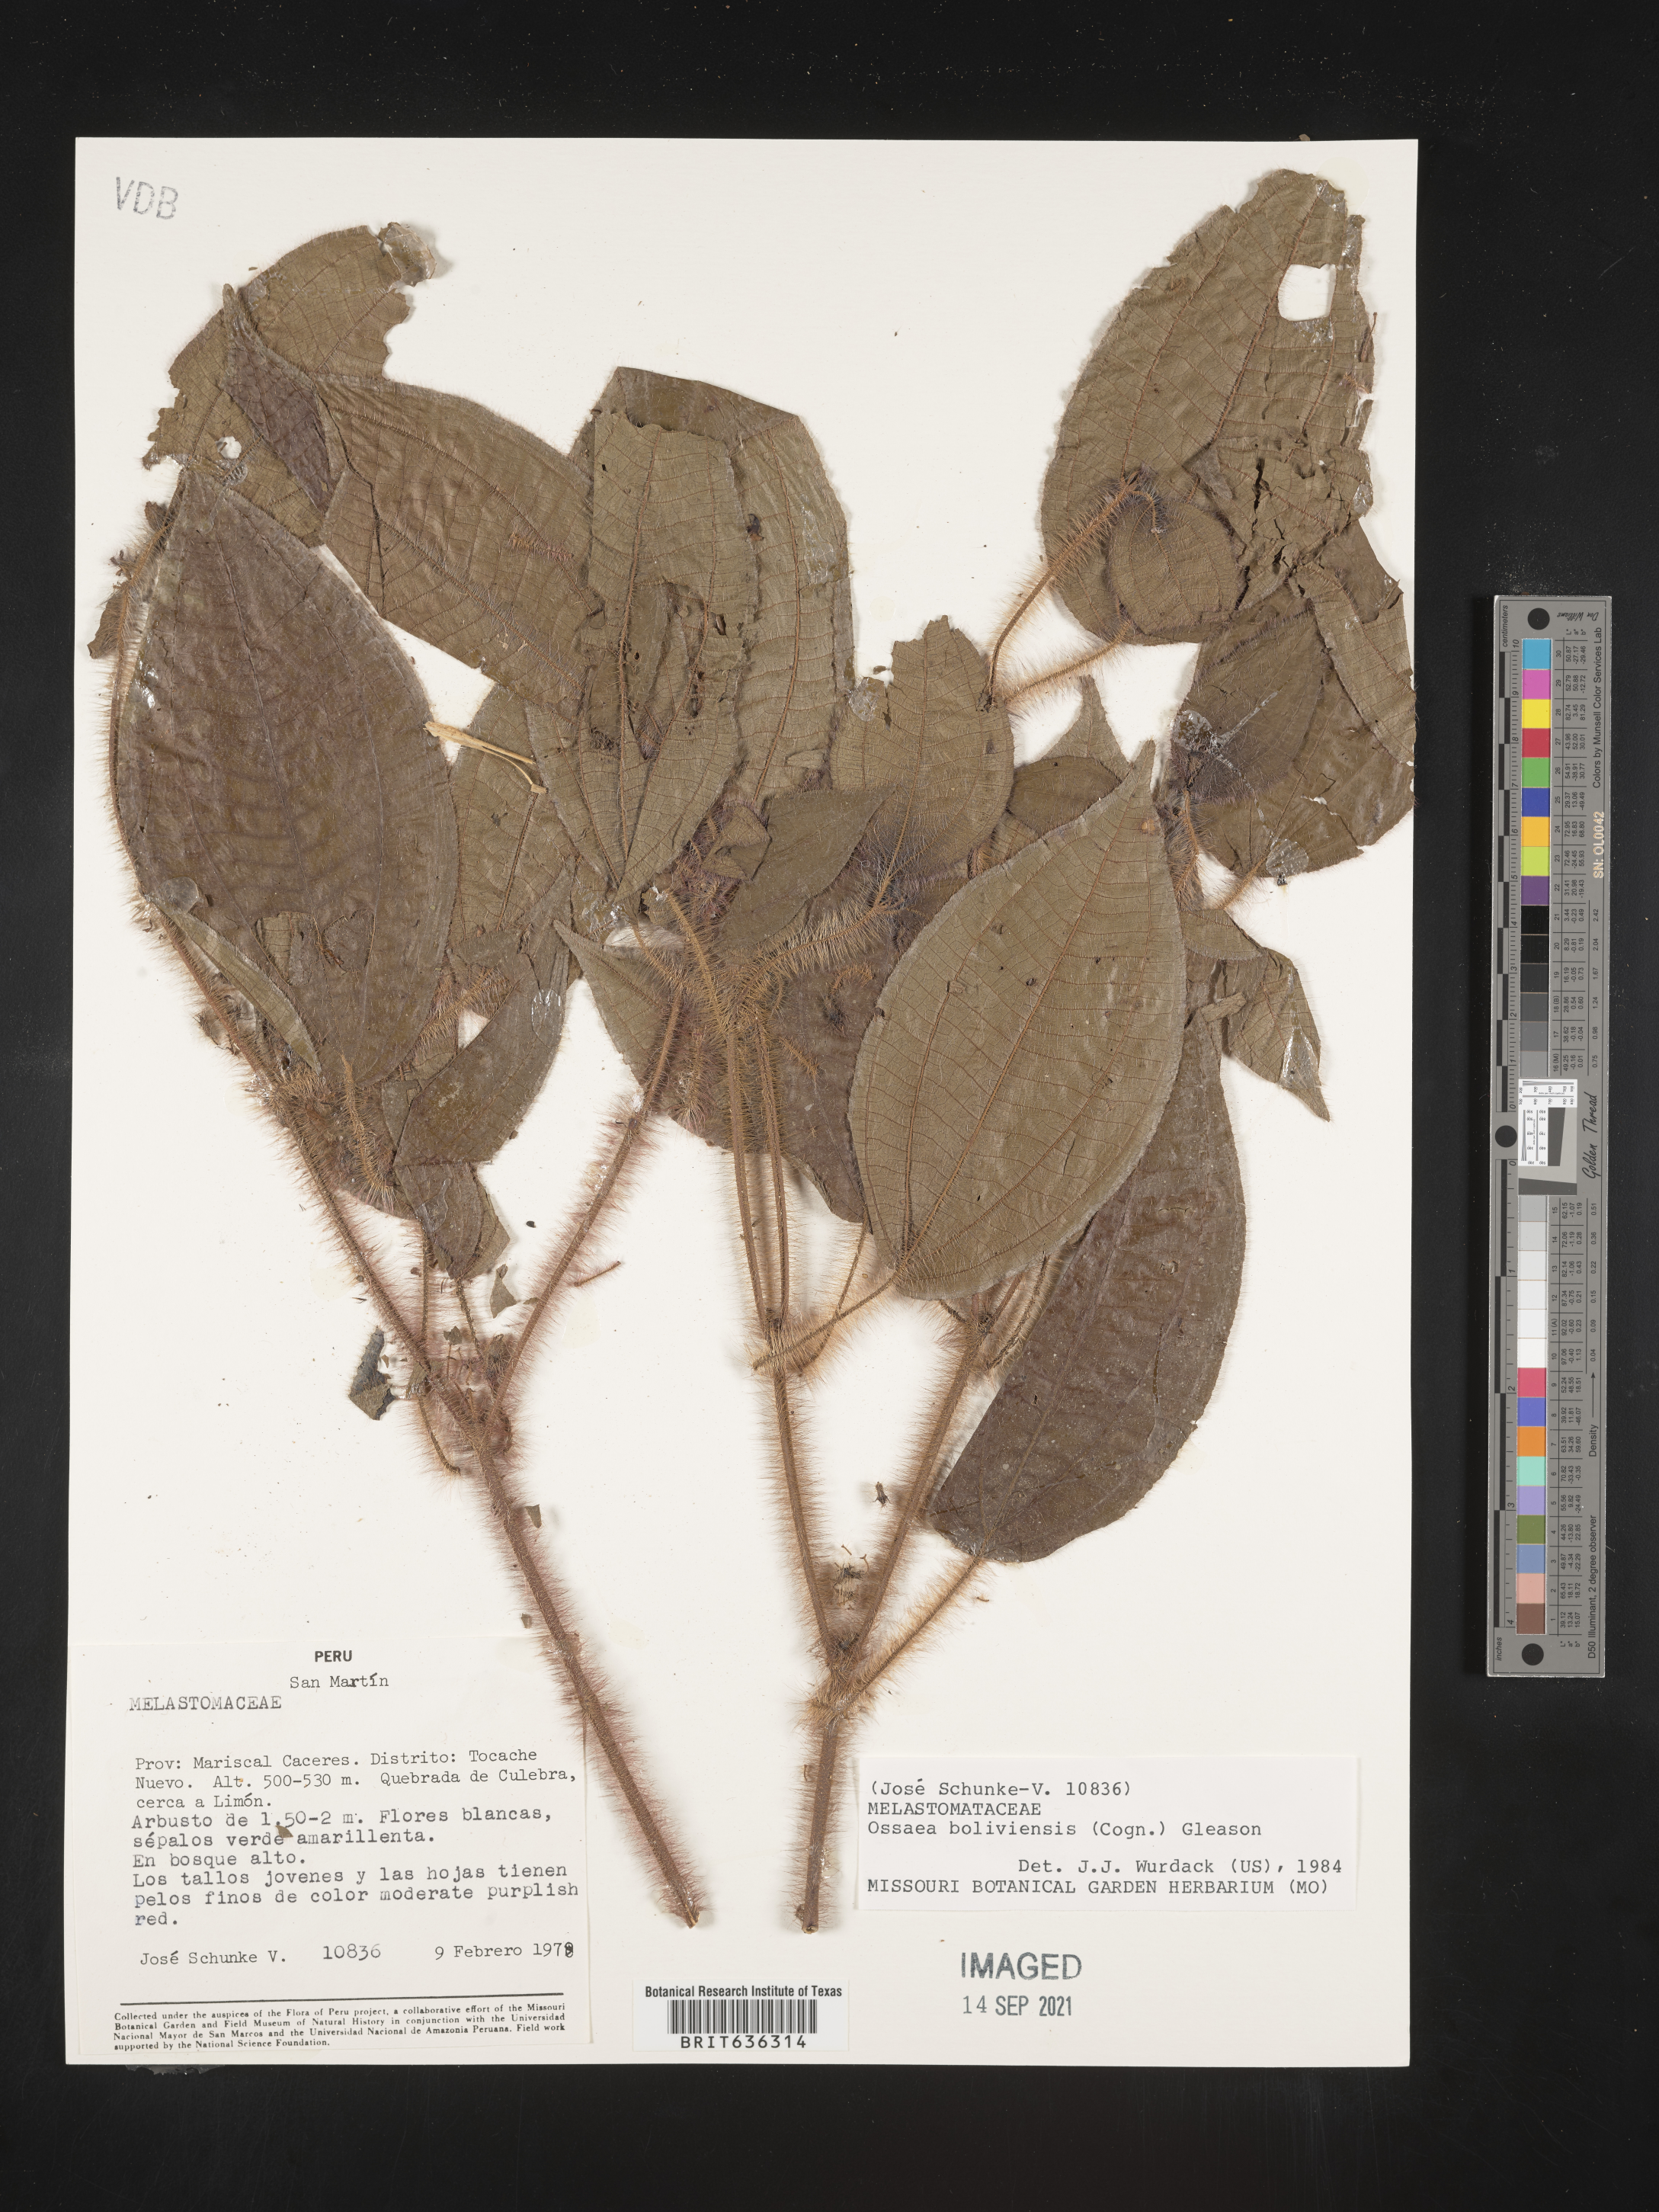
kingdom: Plantae
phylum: Tracheophyta
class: Magnoliopsida
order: Myrtales
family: Melastomataceae
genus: Ossaea
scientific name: Ossaea
